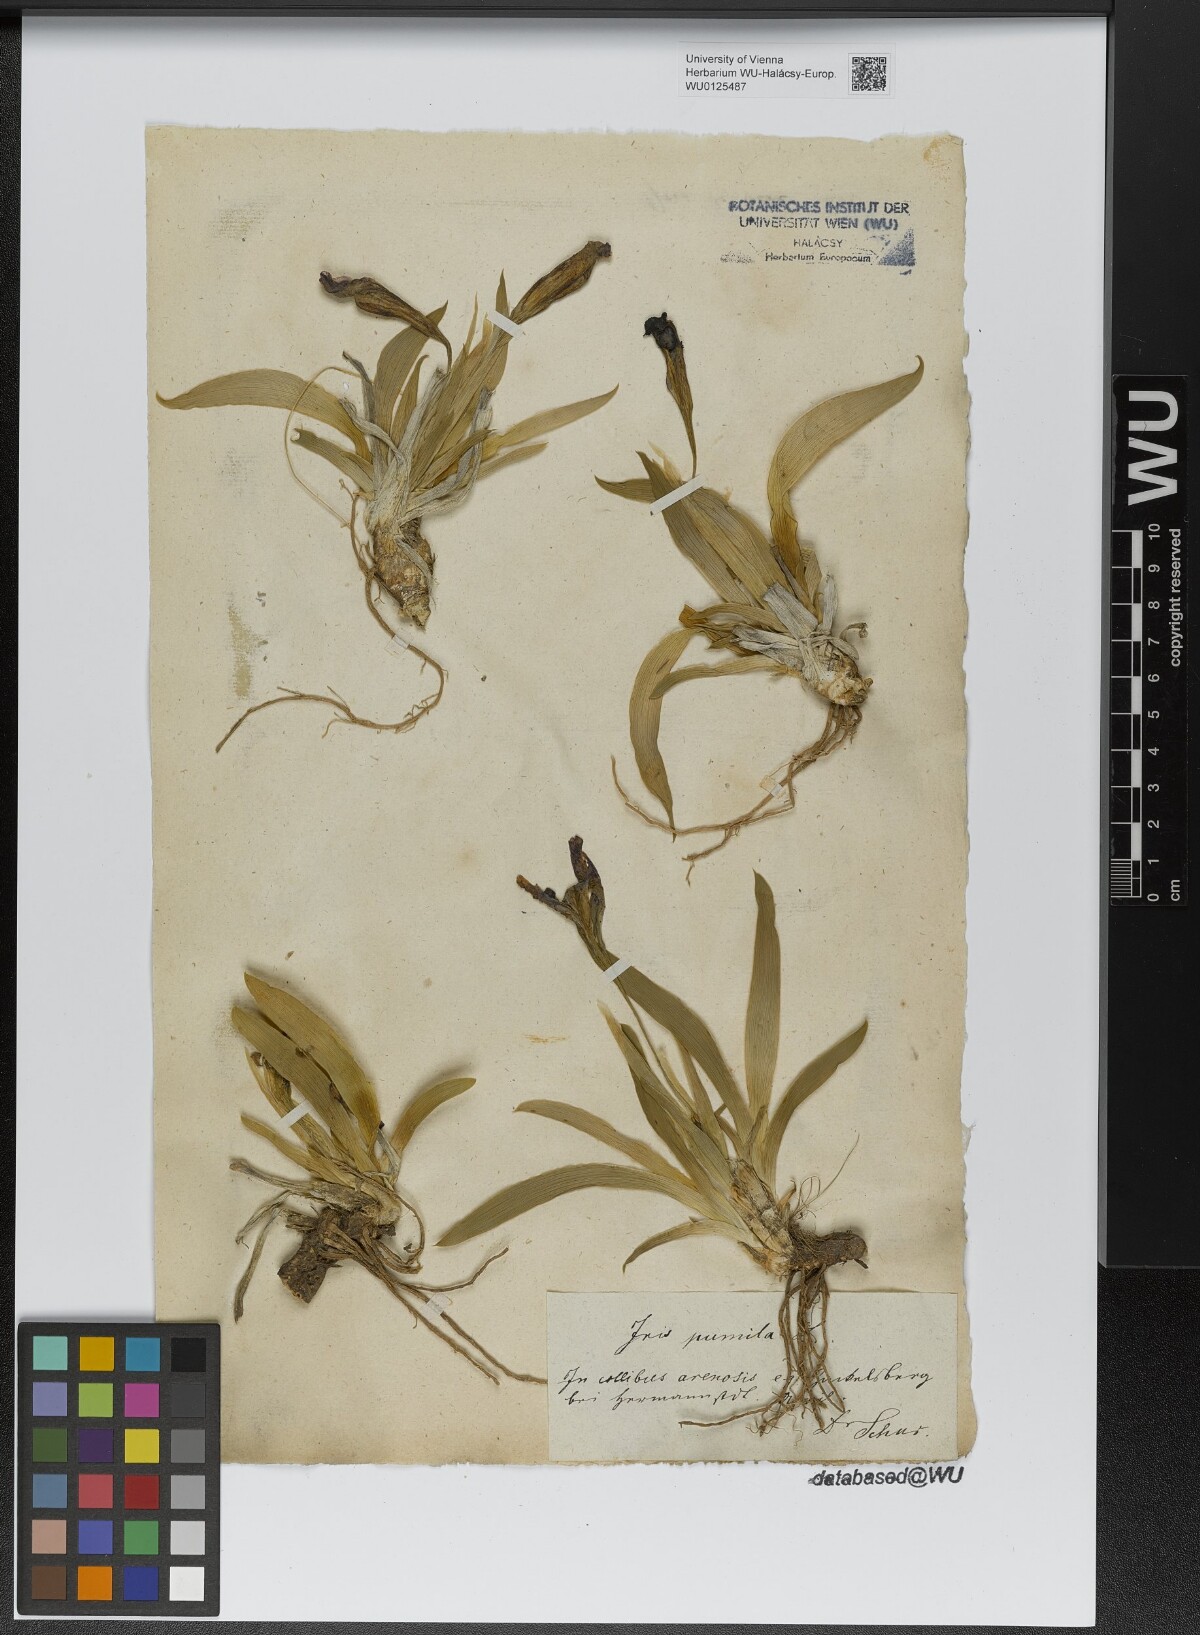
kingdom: Plantae
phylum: Tracheophyta
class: Liliopsida
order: Asparagales
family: Iridaceae
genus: Iris
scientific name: Iris pumila
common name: Dwarf iris
